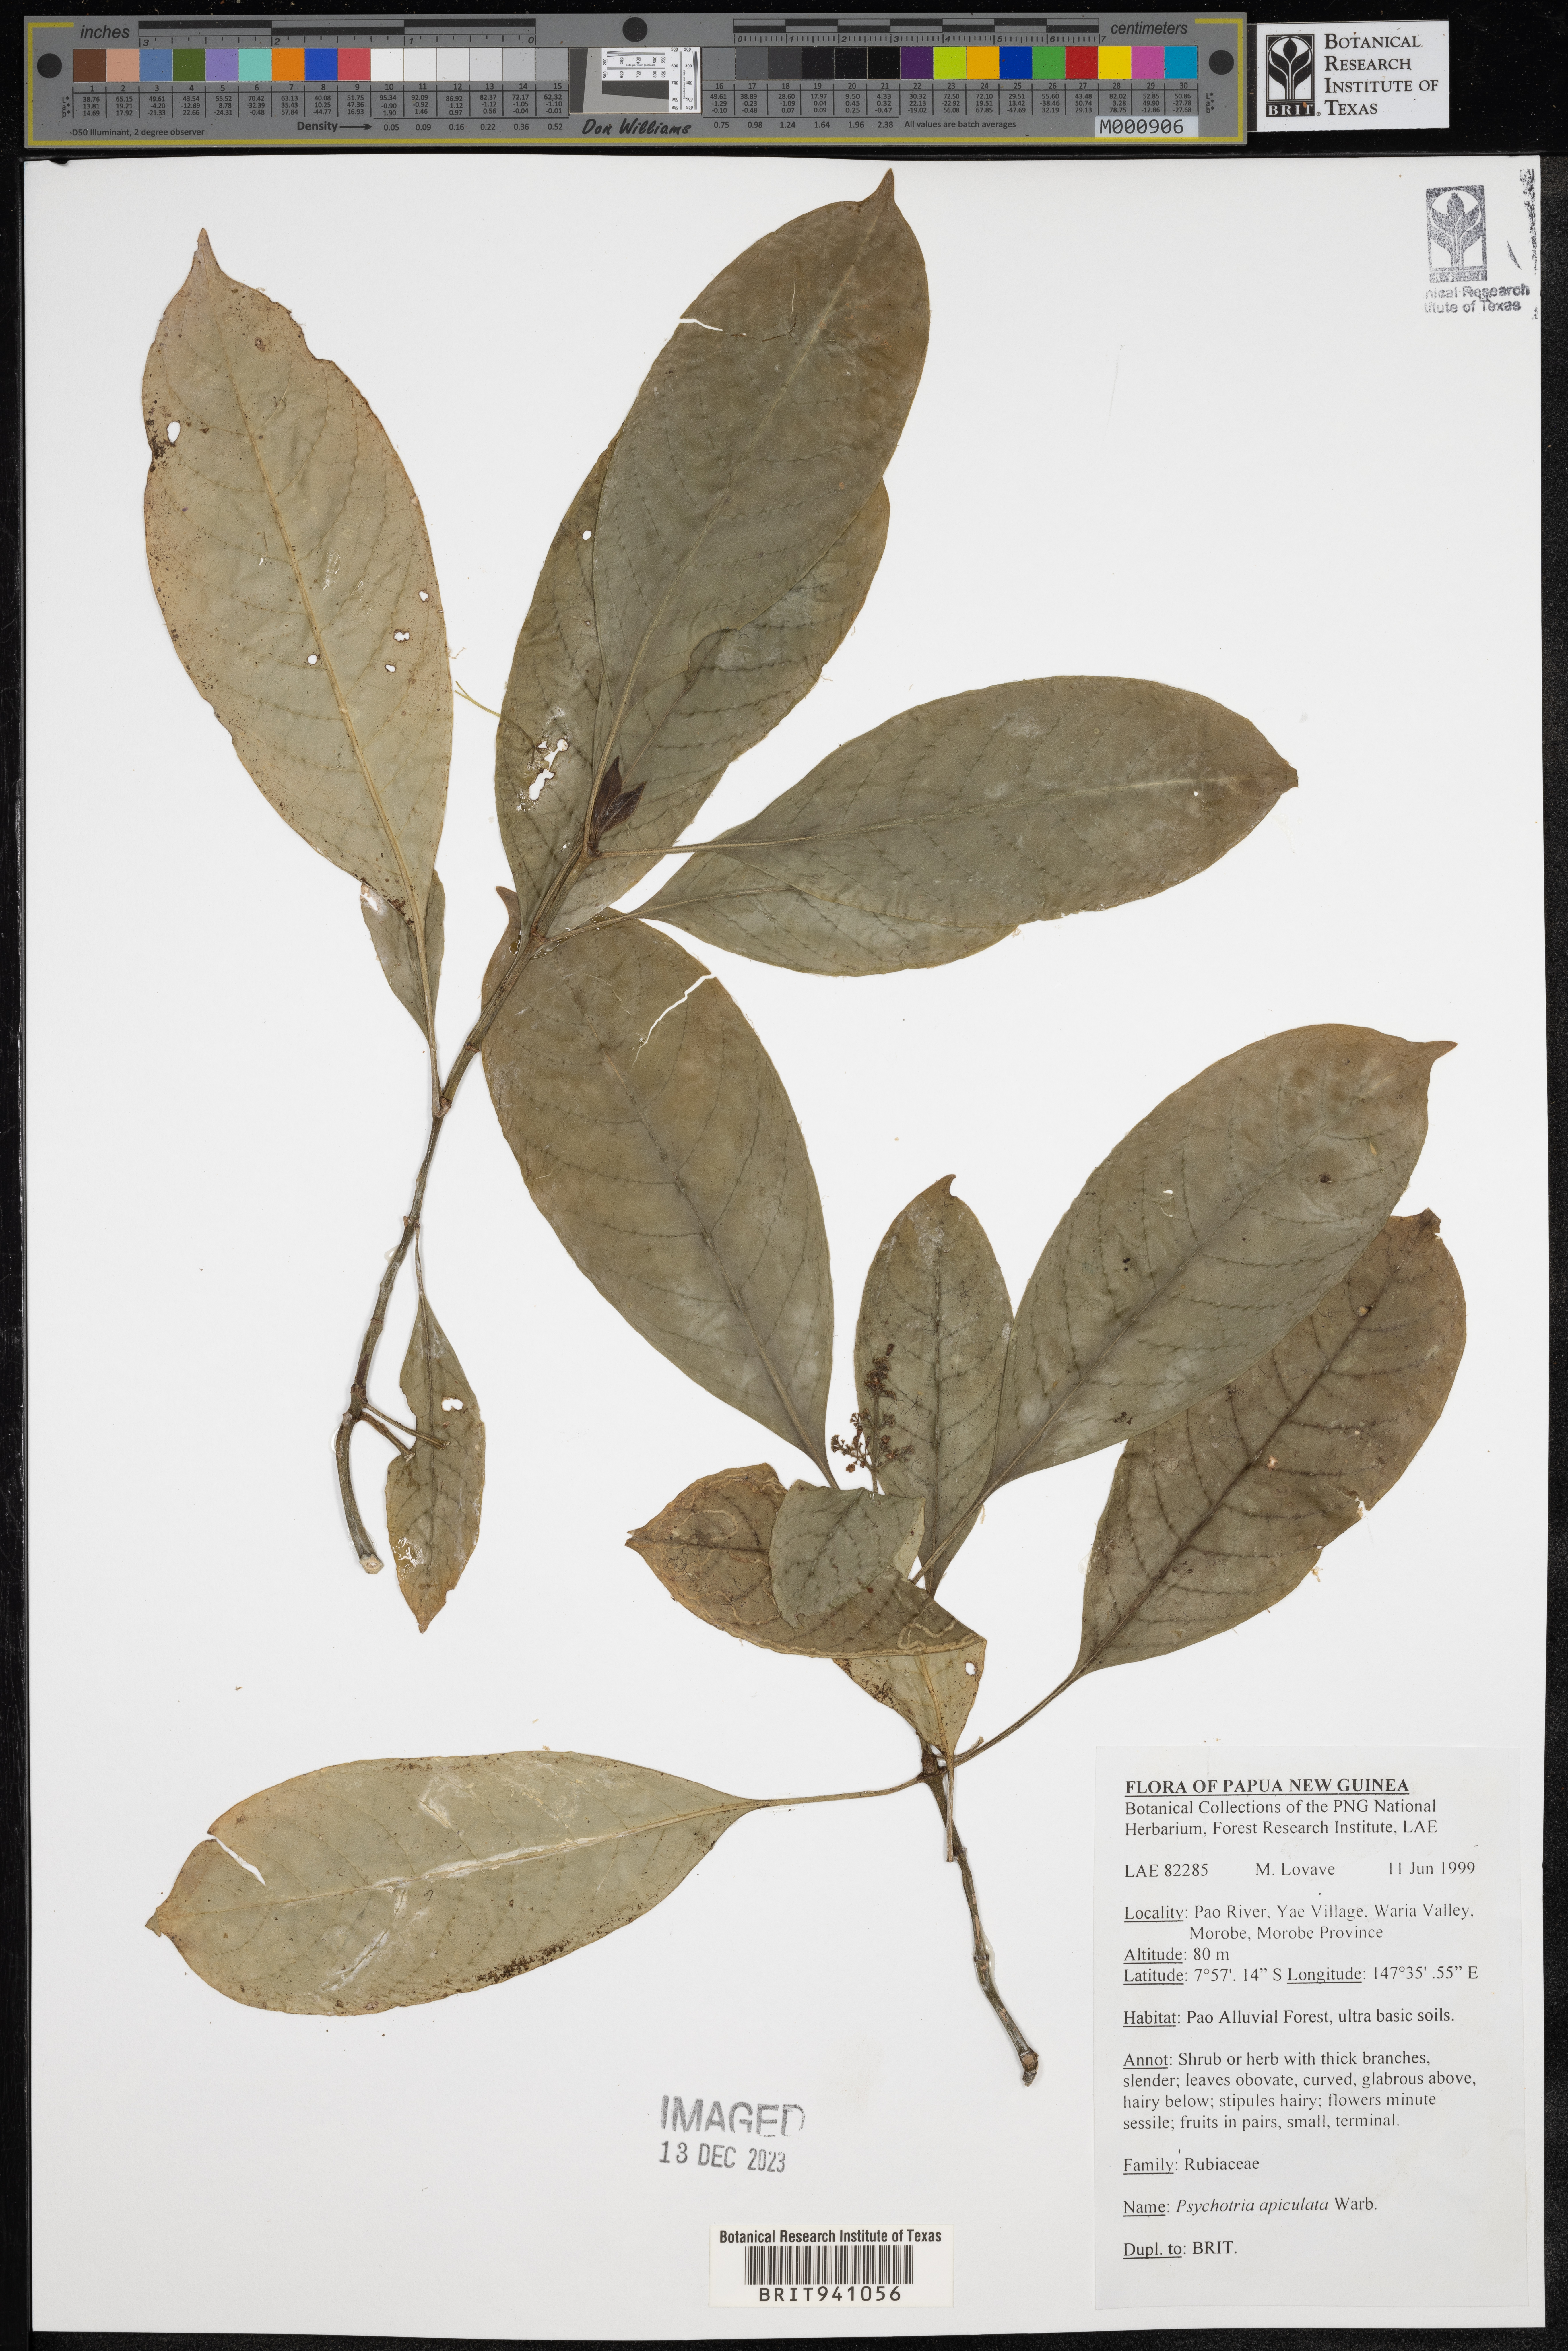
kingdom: Plantae
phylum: Tracheophyta
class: Magnoliopsida
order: Gentianales
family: Rubiaceae
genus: Psychotria
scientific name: Psychotria
